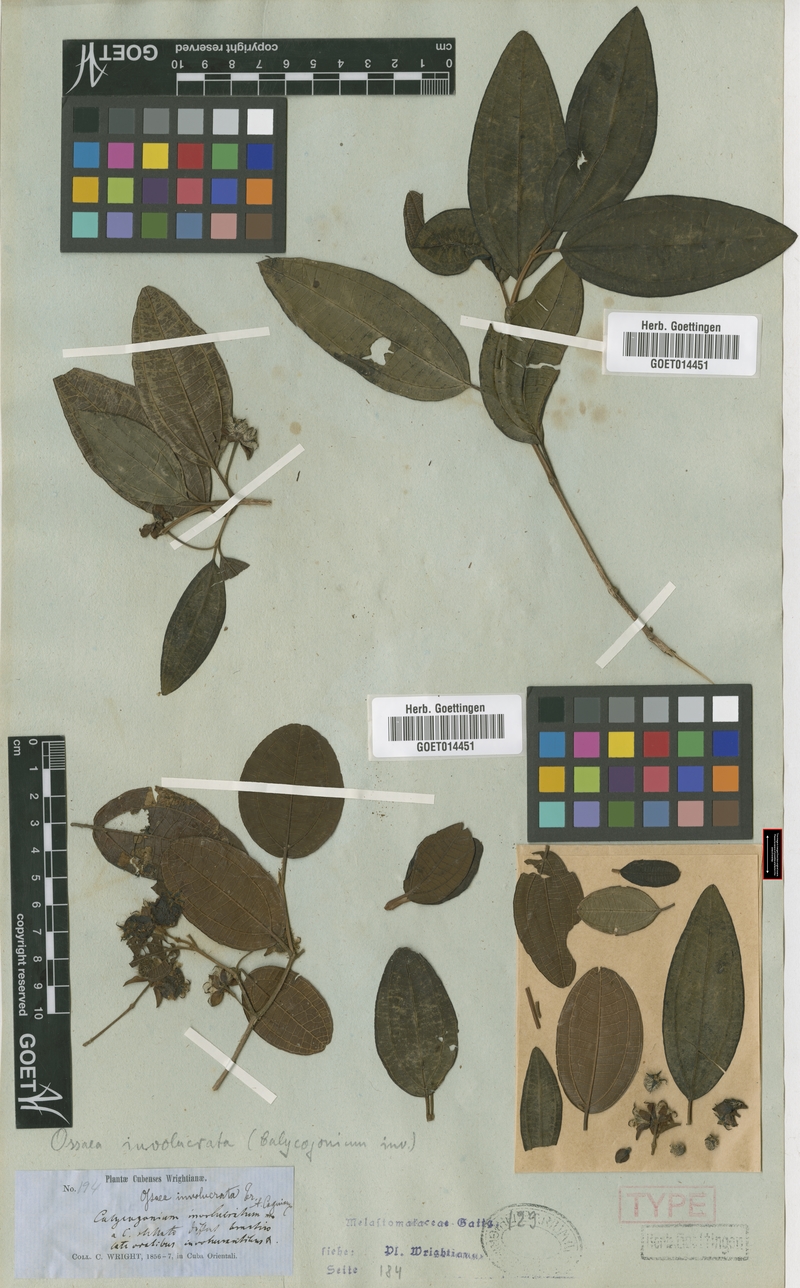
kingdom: Plantae
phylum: Tracheophyta
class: Magnoliopsida
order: Myrtales
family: Melastomataceae
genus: Miconia
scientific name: Miconia grandibracteata
